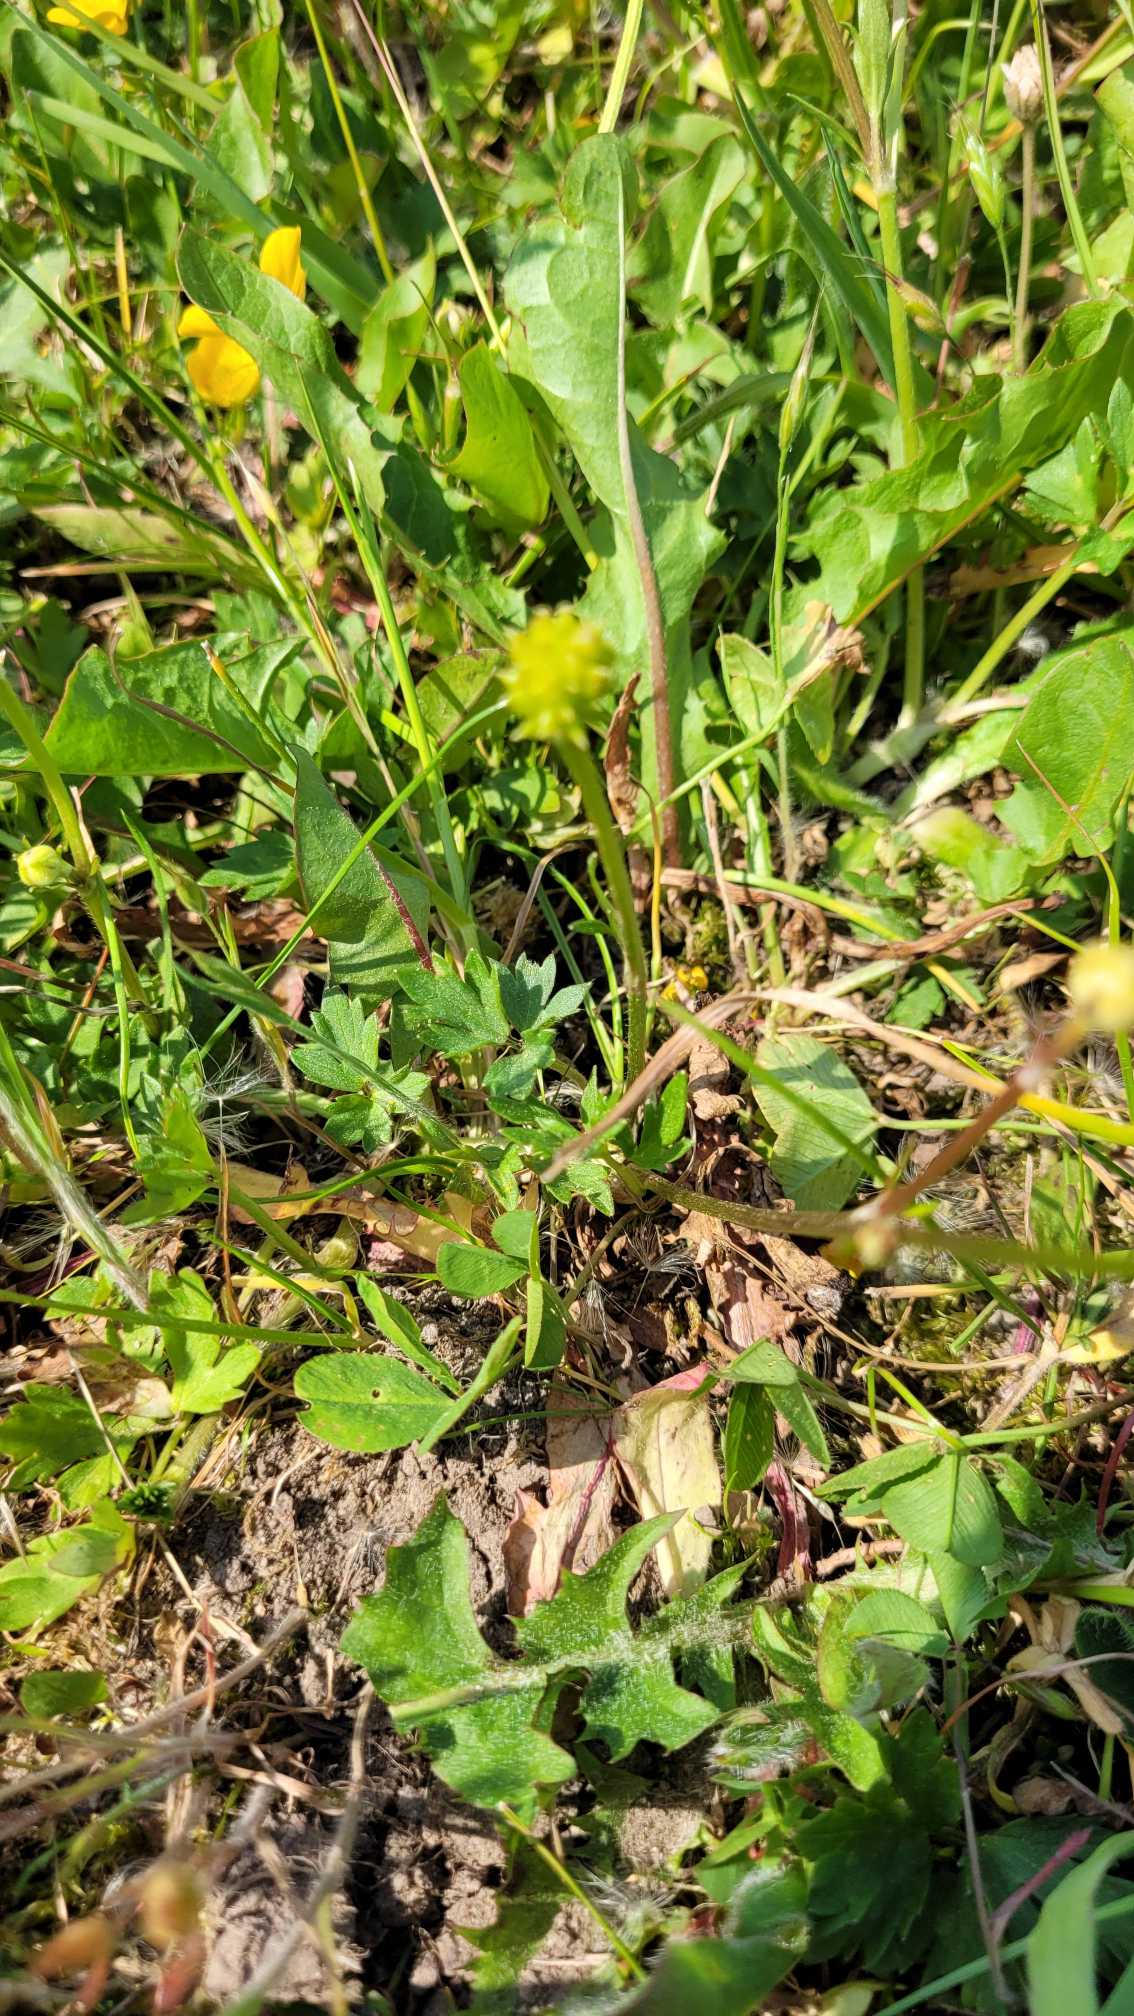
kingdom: Plantae
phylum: Tracheophyta
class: Magnoliopsida
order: Ranunculales
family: Ranunculaceae
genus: Ranunculus
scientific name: Ranunculus repens
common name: Lav ranunkel
